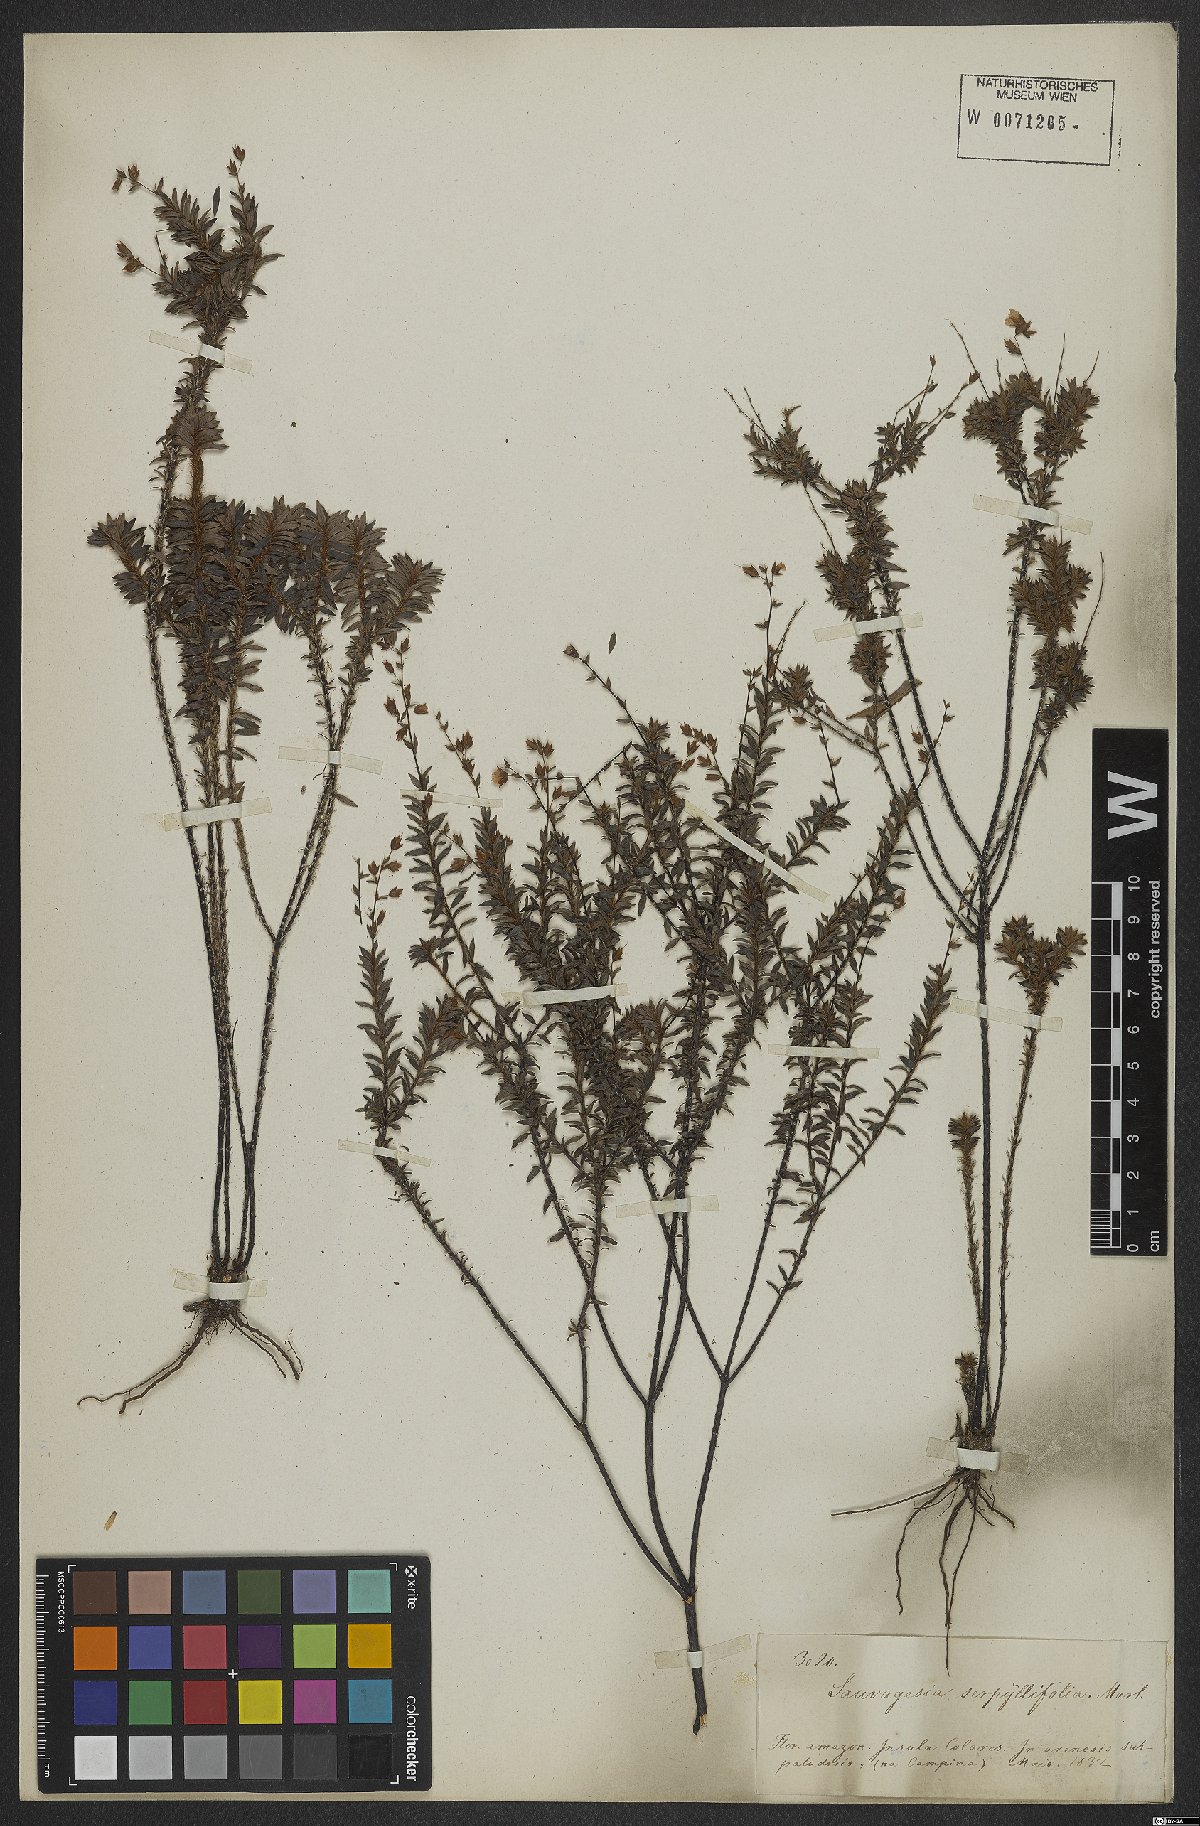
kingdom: Plantae
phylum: Tracheophyta
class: Magnoliopsida
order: Malpighiales
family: Ochnaceae
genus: Sauvagesia
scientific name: Sauvagesia tenella
